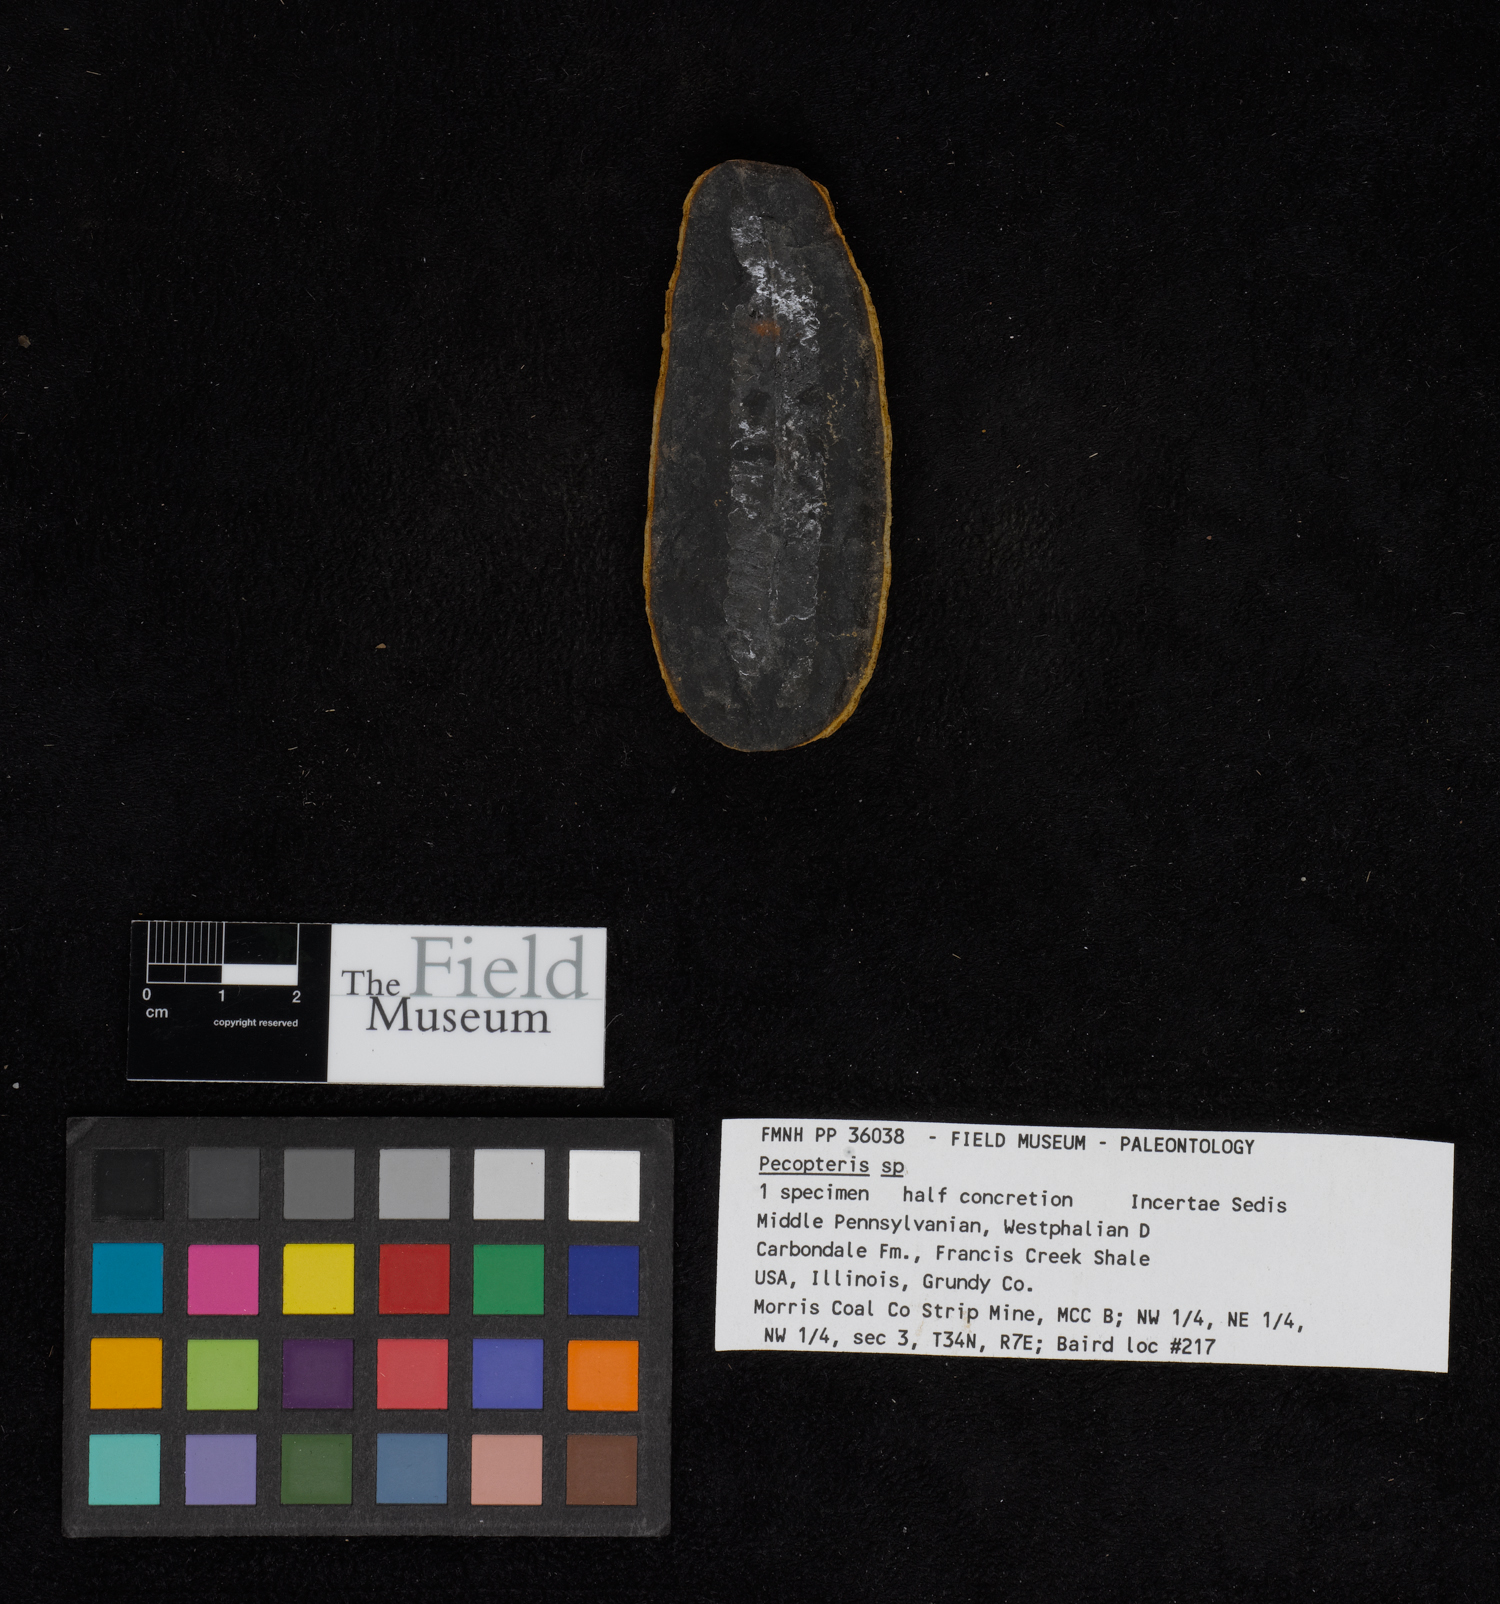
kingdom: Plantae
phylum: Tracheophyta
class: Polypodiopsida
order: Marattiales
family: Asterothecaceae
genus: Pecopteris
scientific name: Pecopteris
